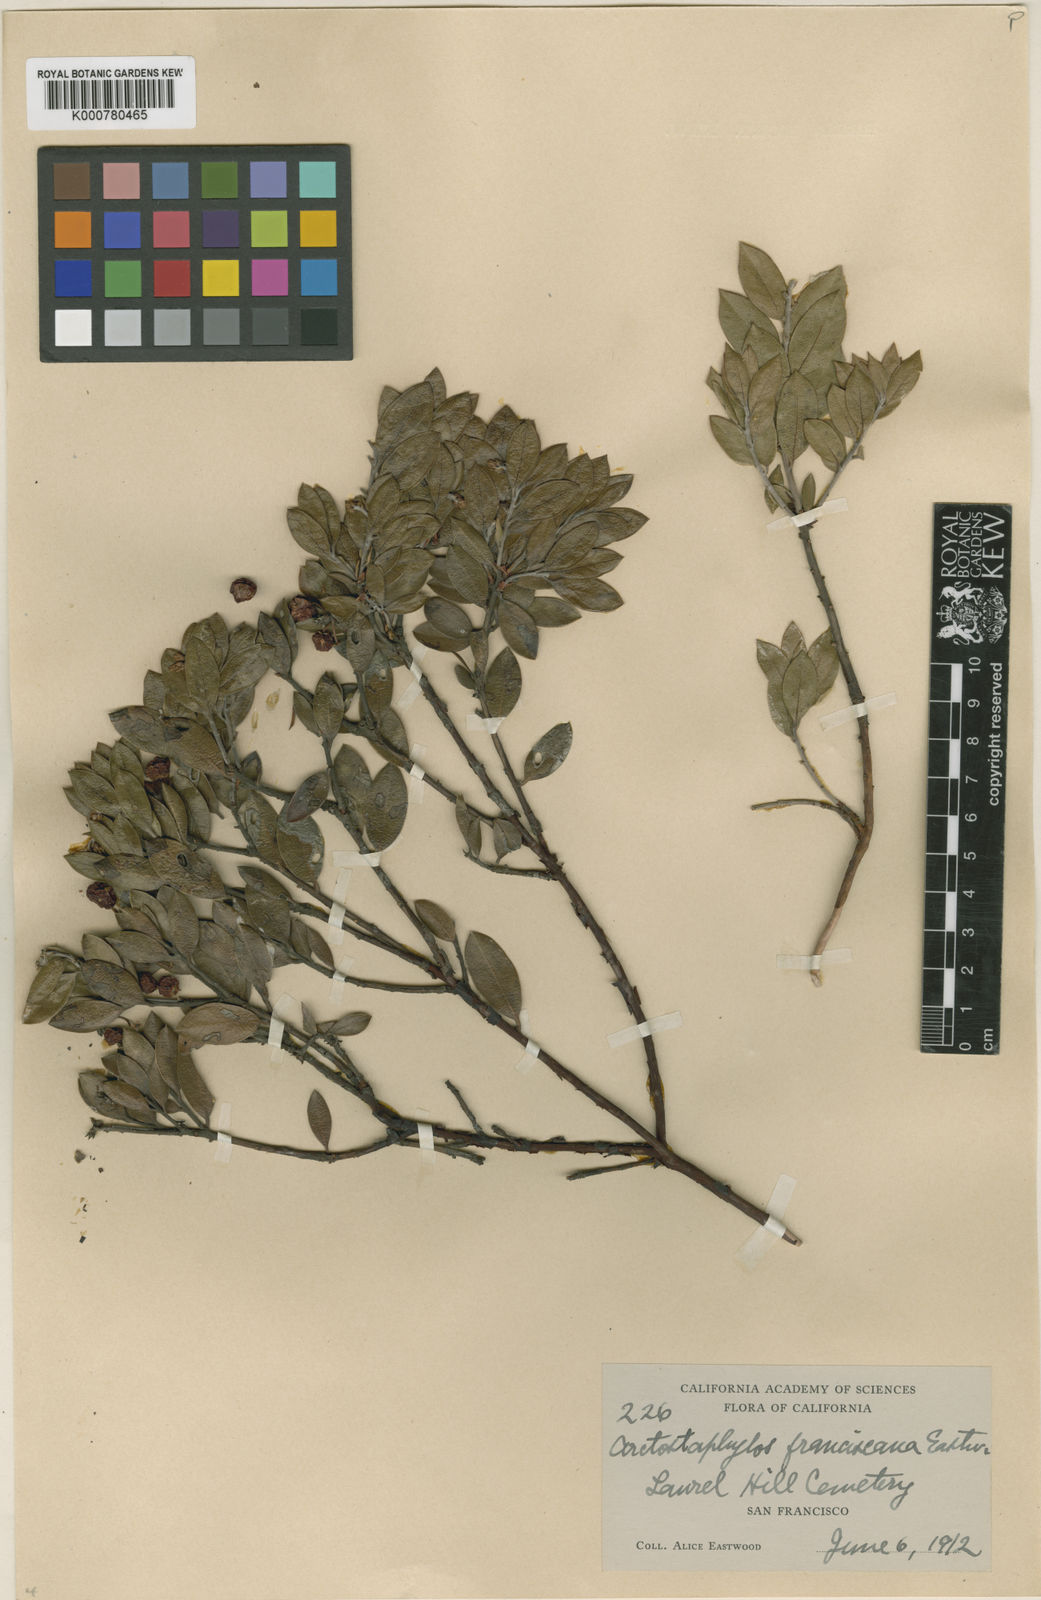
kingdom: Plantae
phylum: Tracheophyta
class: Magnoliopsida
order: Ericales
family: Ericaceae
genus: Arctostaphylos
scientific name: Arctostaphylos hookeri
